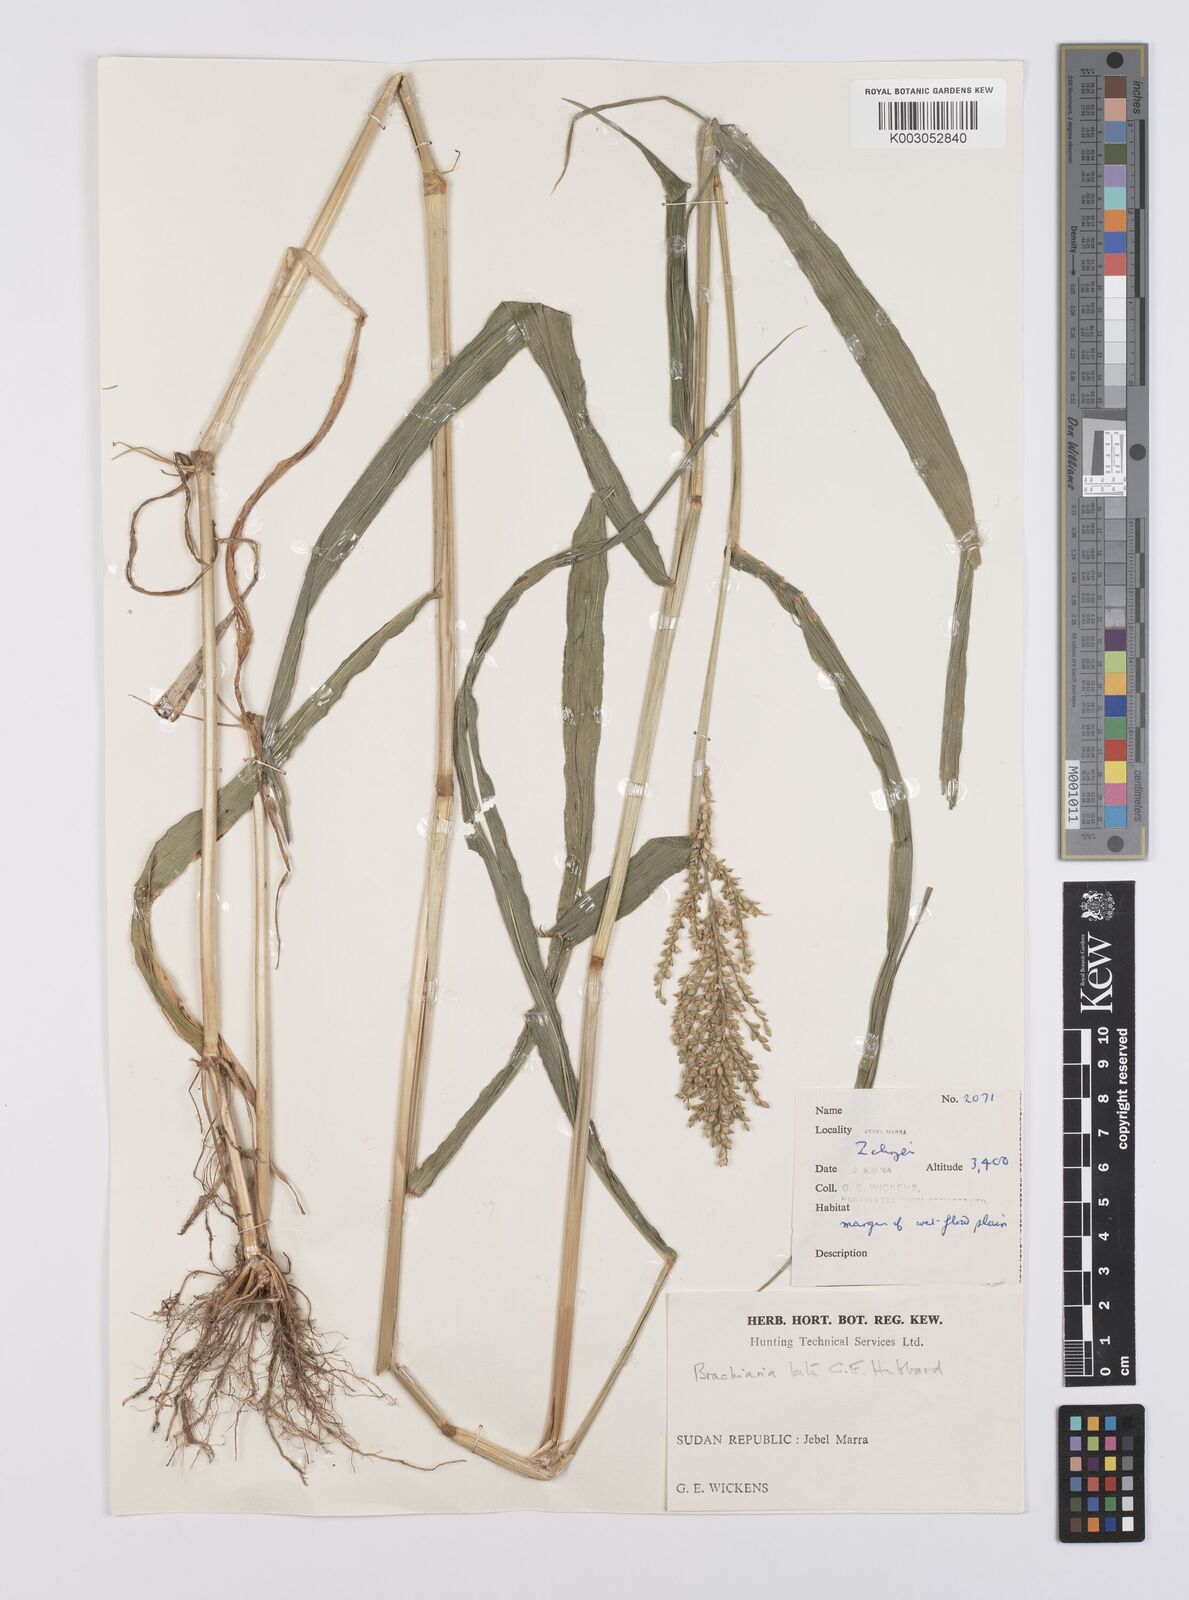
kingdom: Plantae
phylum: Tracheophyta
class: Liliopsida
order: Poales
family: Poaceae
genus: Urochloa
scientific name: Urochloa lata
